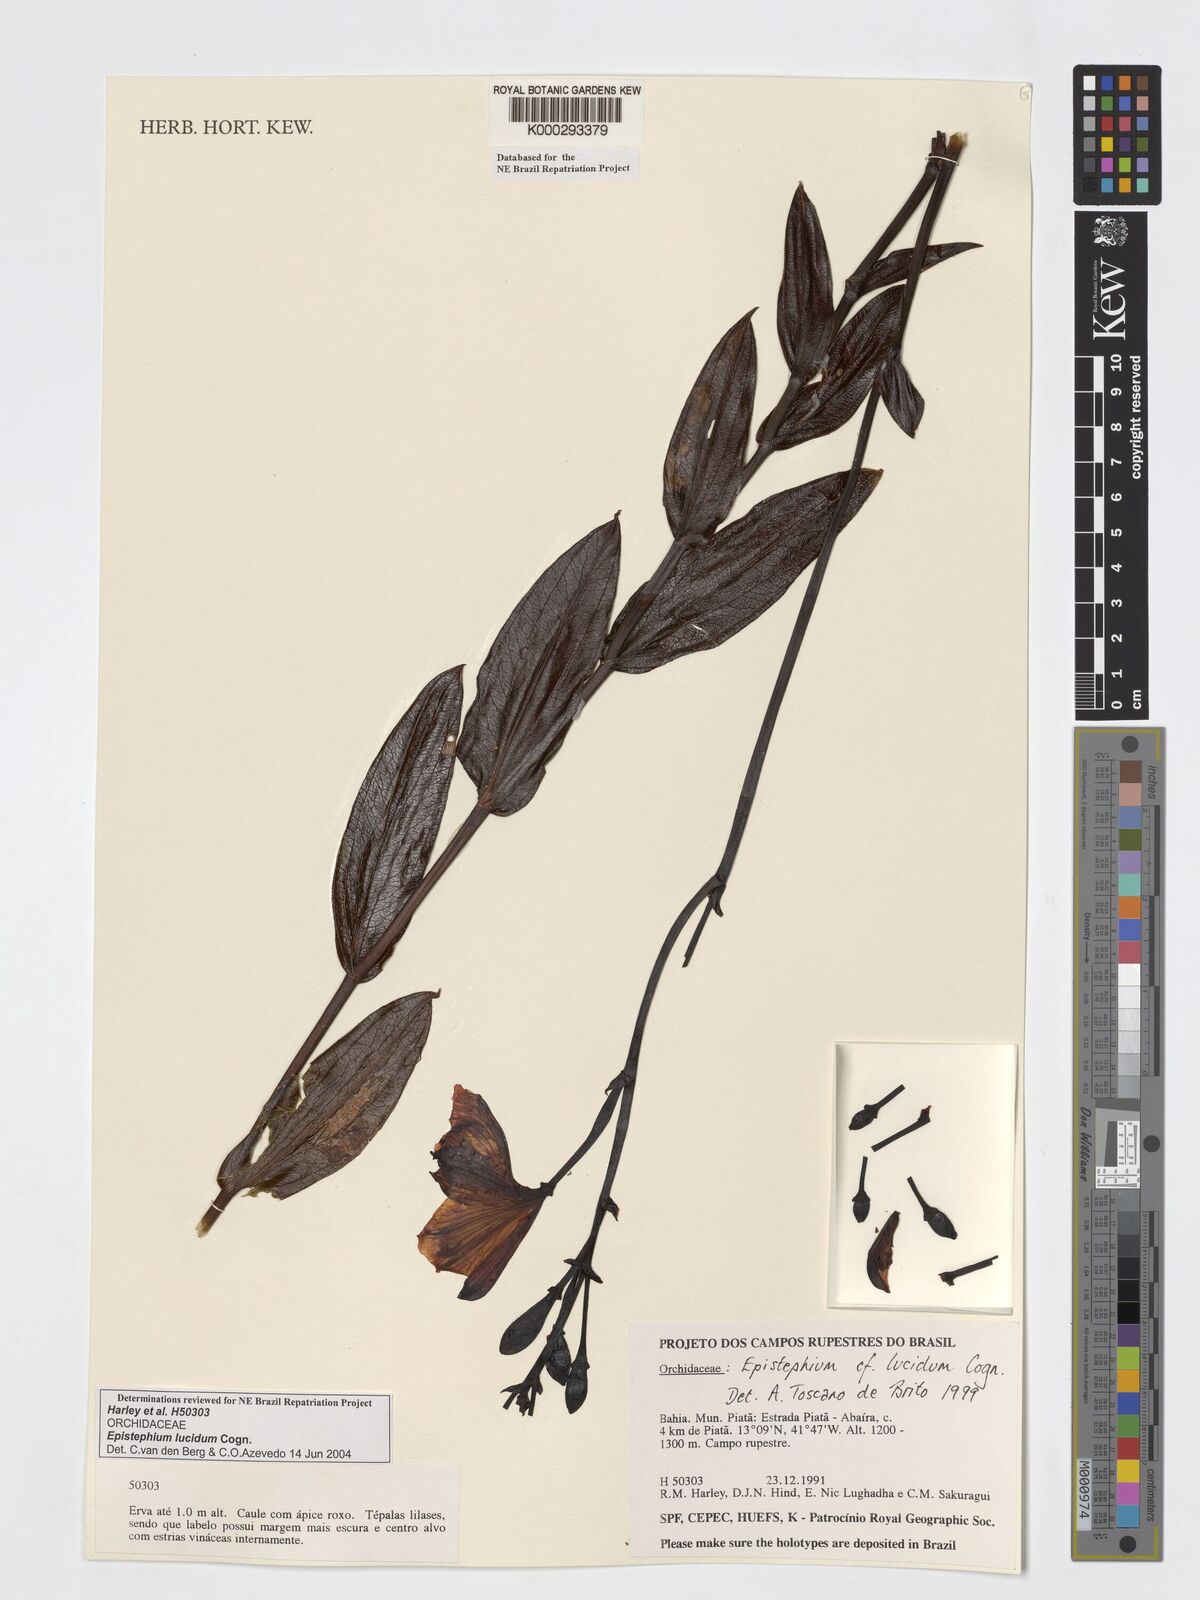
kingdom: Plantae
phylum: Tracheophyta
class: Liliopsida
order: Asparagales
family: Orchidaceae
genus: Epistephium
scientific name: Epistephium williamsii
